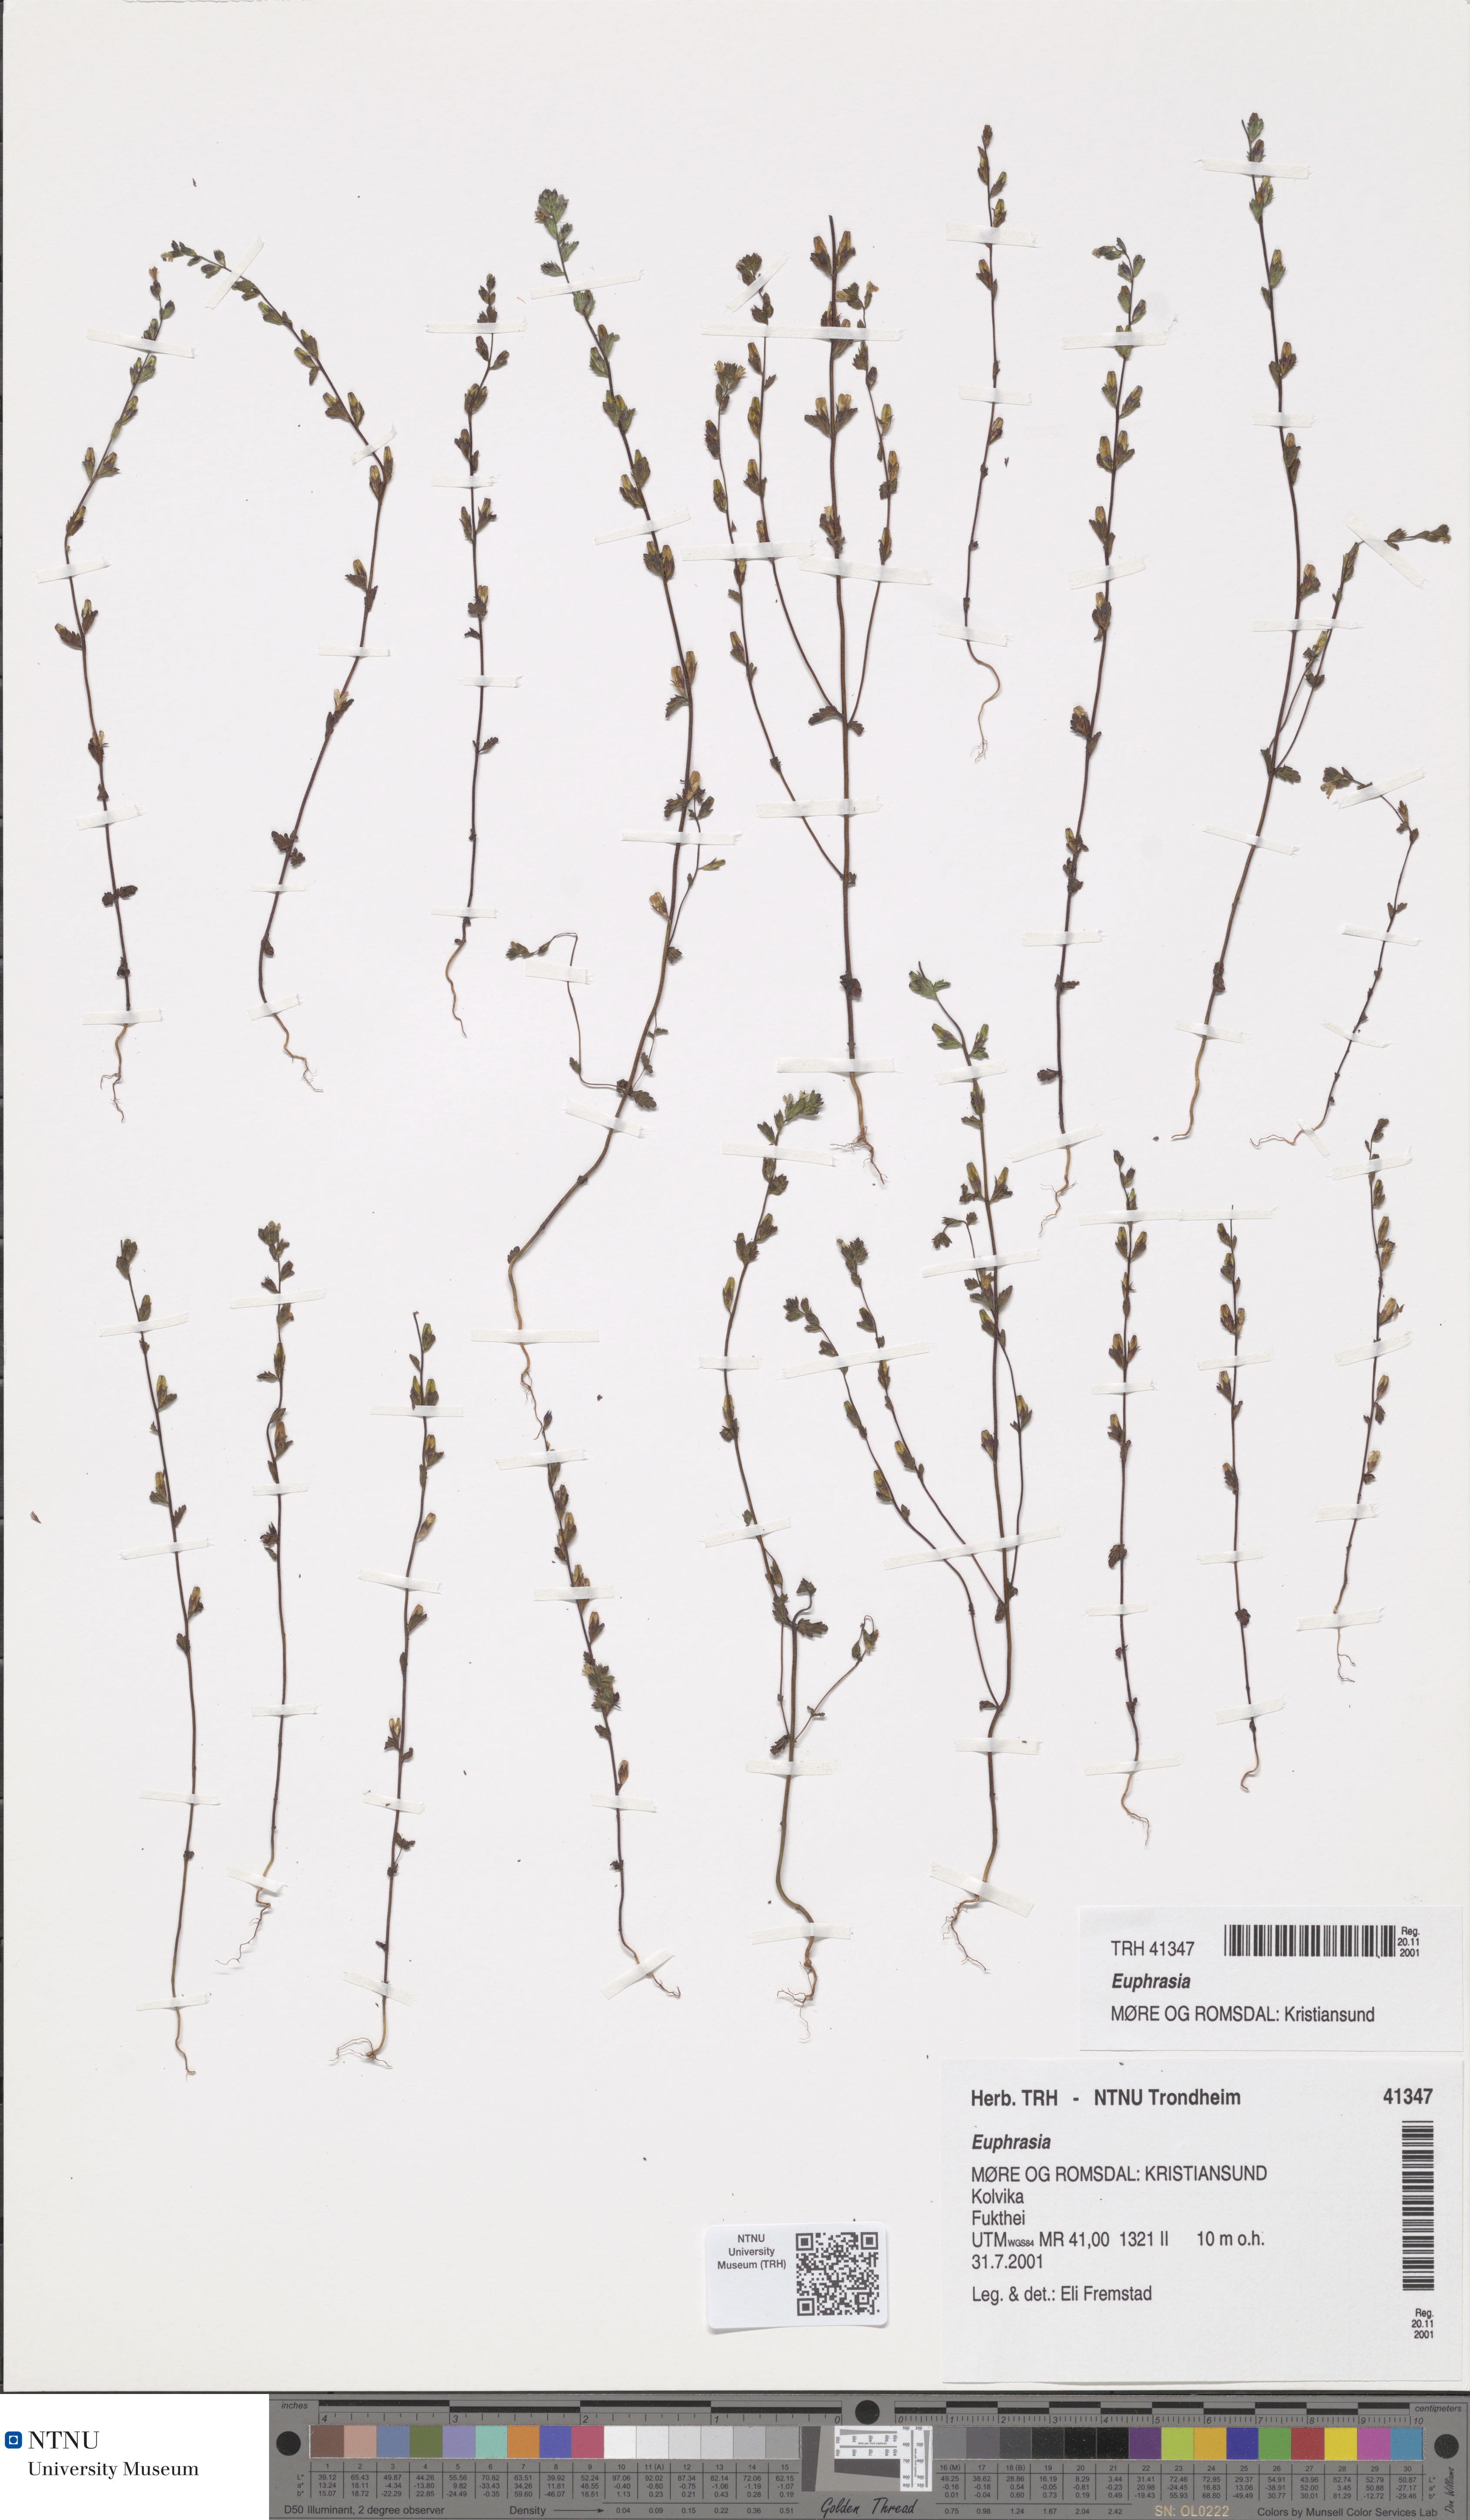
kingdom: Plantae
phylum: Tracheophyta
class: Magnoliopsida
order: Lamiales
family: Orobanchaceae
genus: Euphrasia
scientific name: Euphrasia
